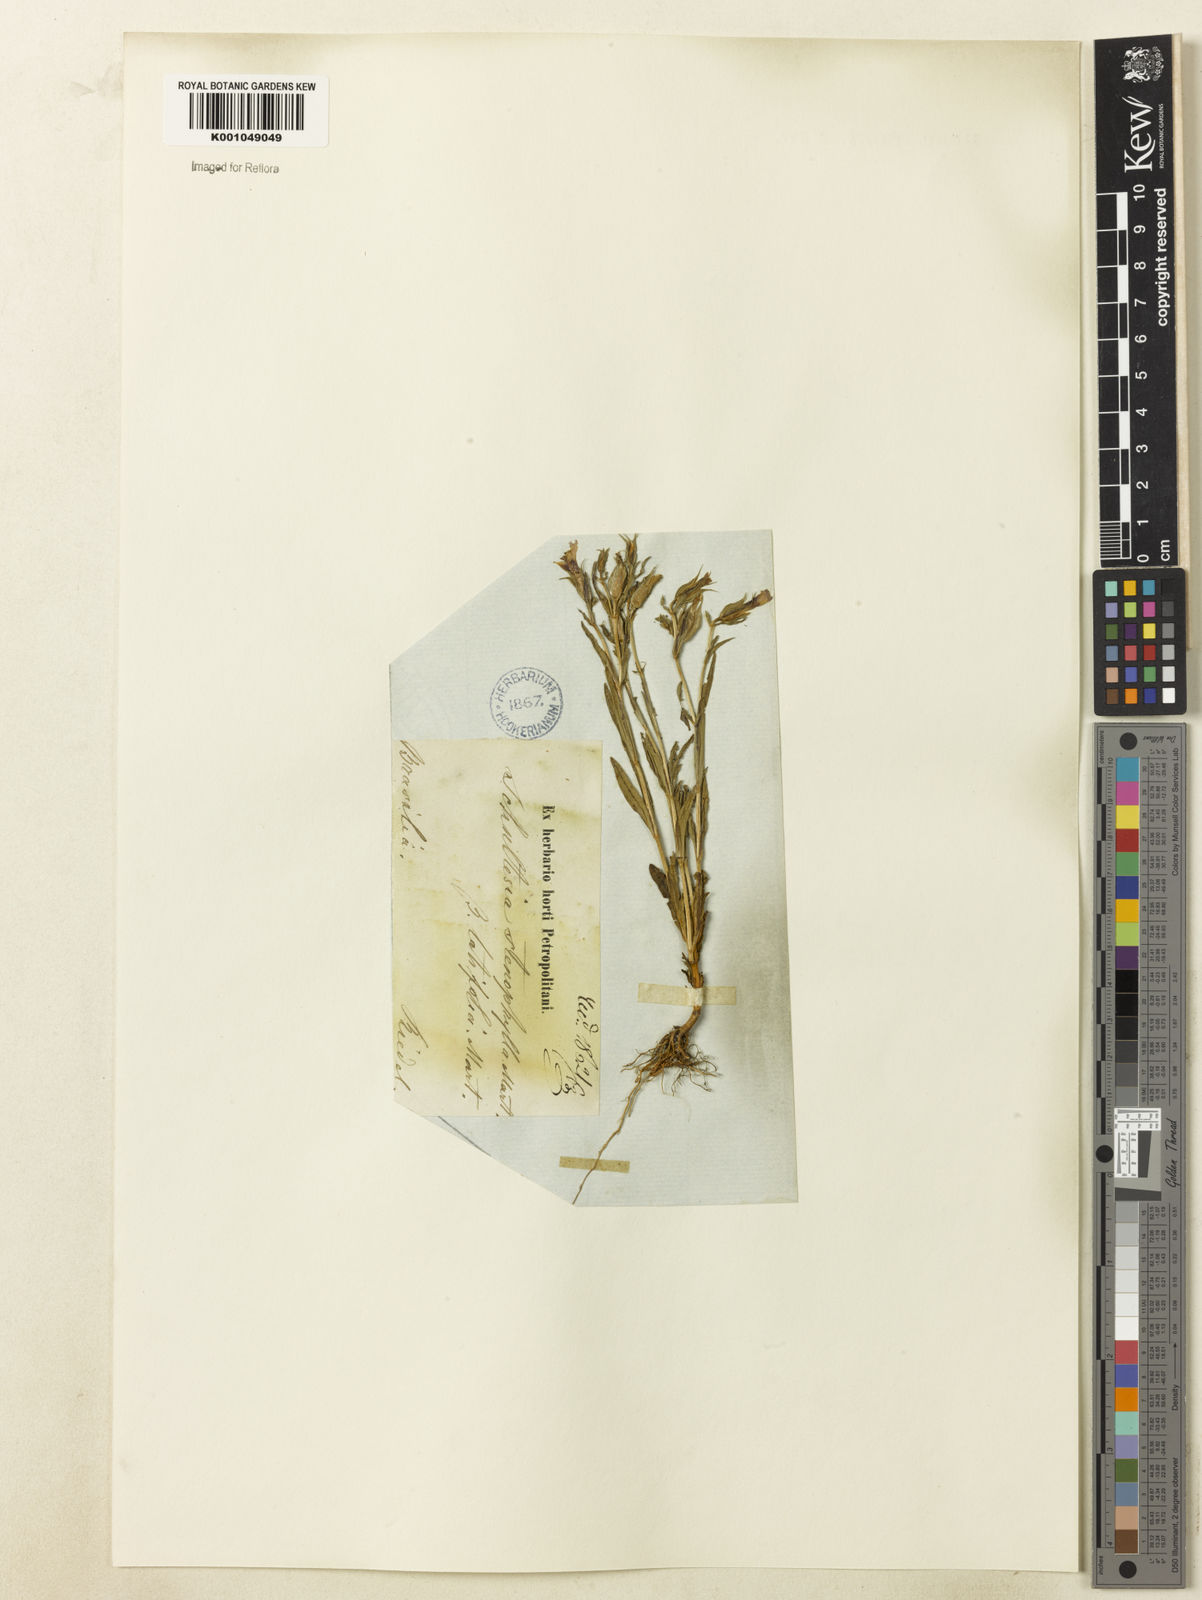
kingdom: Plantae
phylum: Tracheophyta
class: Magnoliopsida
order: Gentianales
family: Gentianaceae
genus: Schultesia
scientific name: Schultesia guianensis
